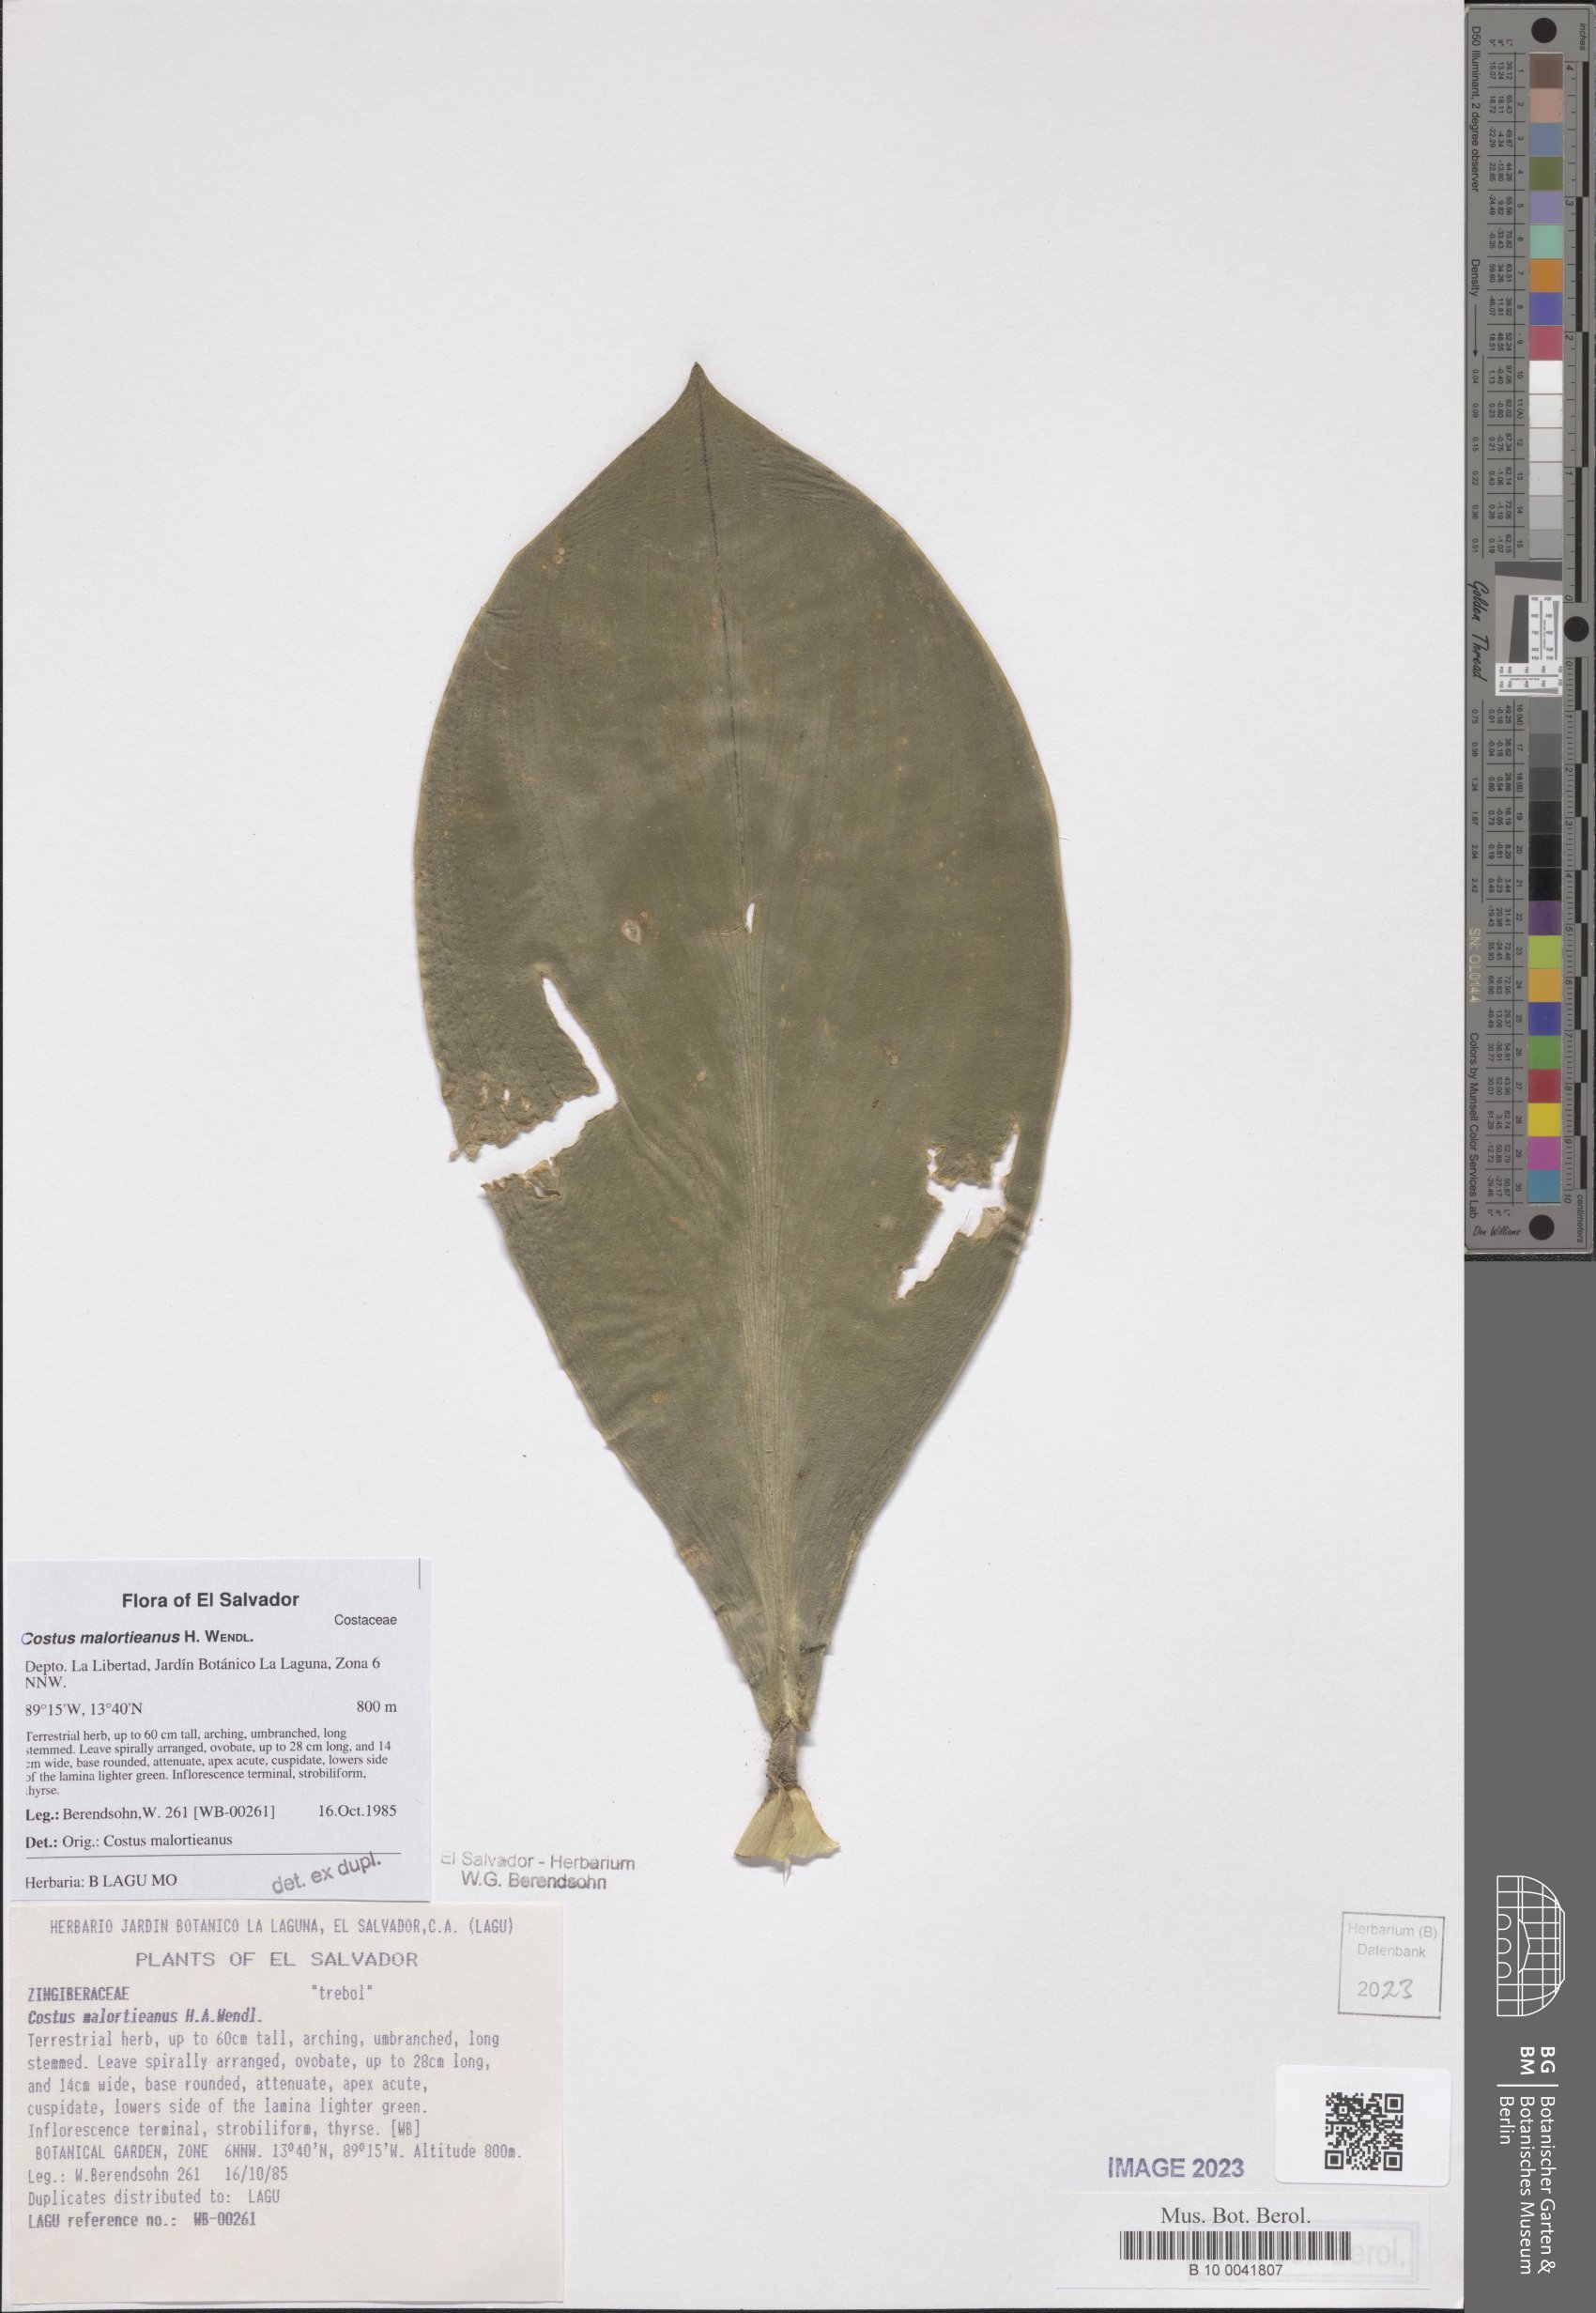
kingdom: Plantae
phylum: Tracheophyta
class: Liliopsida
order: Zingiberales
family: Costaceae
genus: Costus
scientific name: Costus elegans
